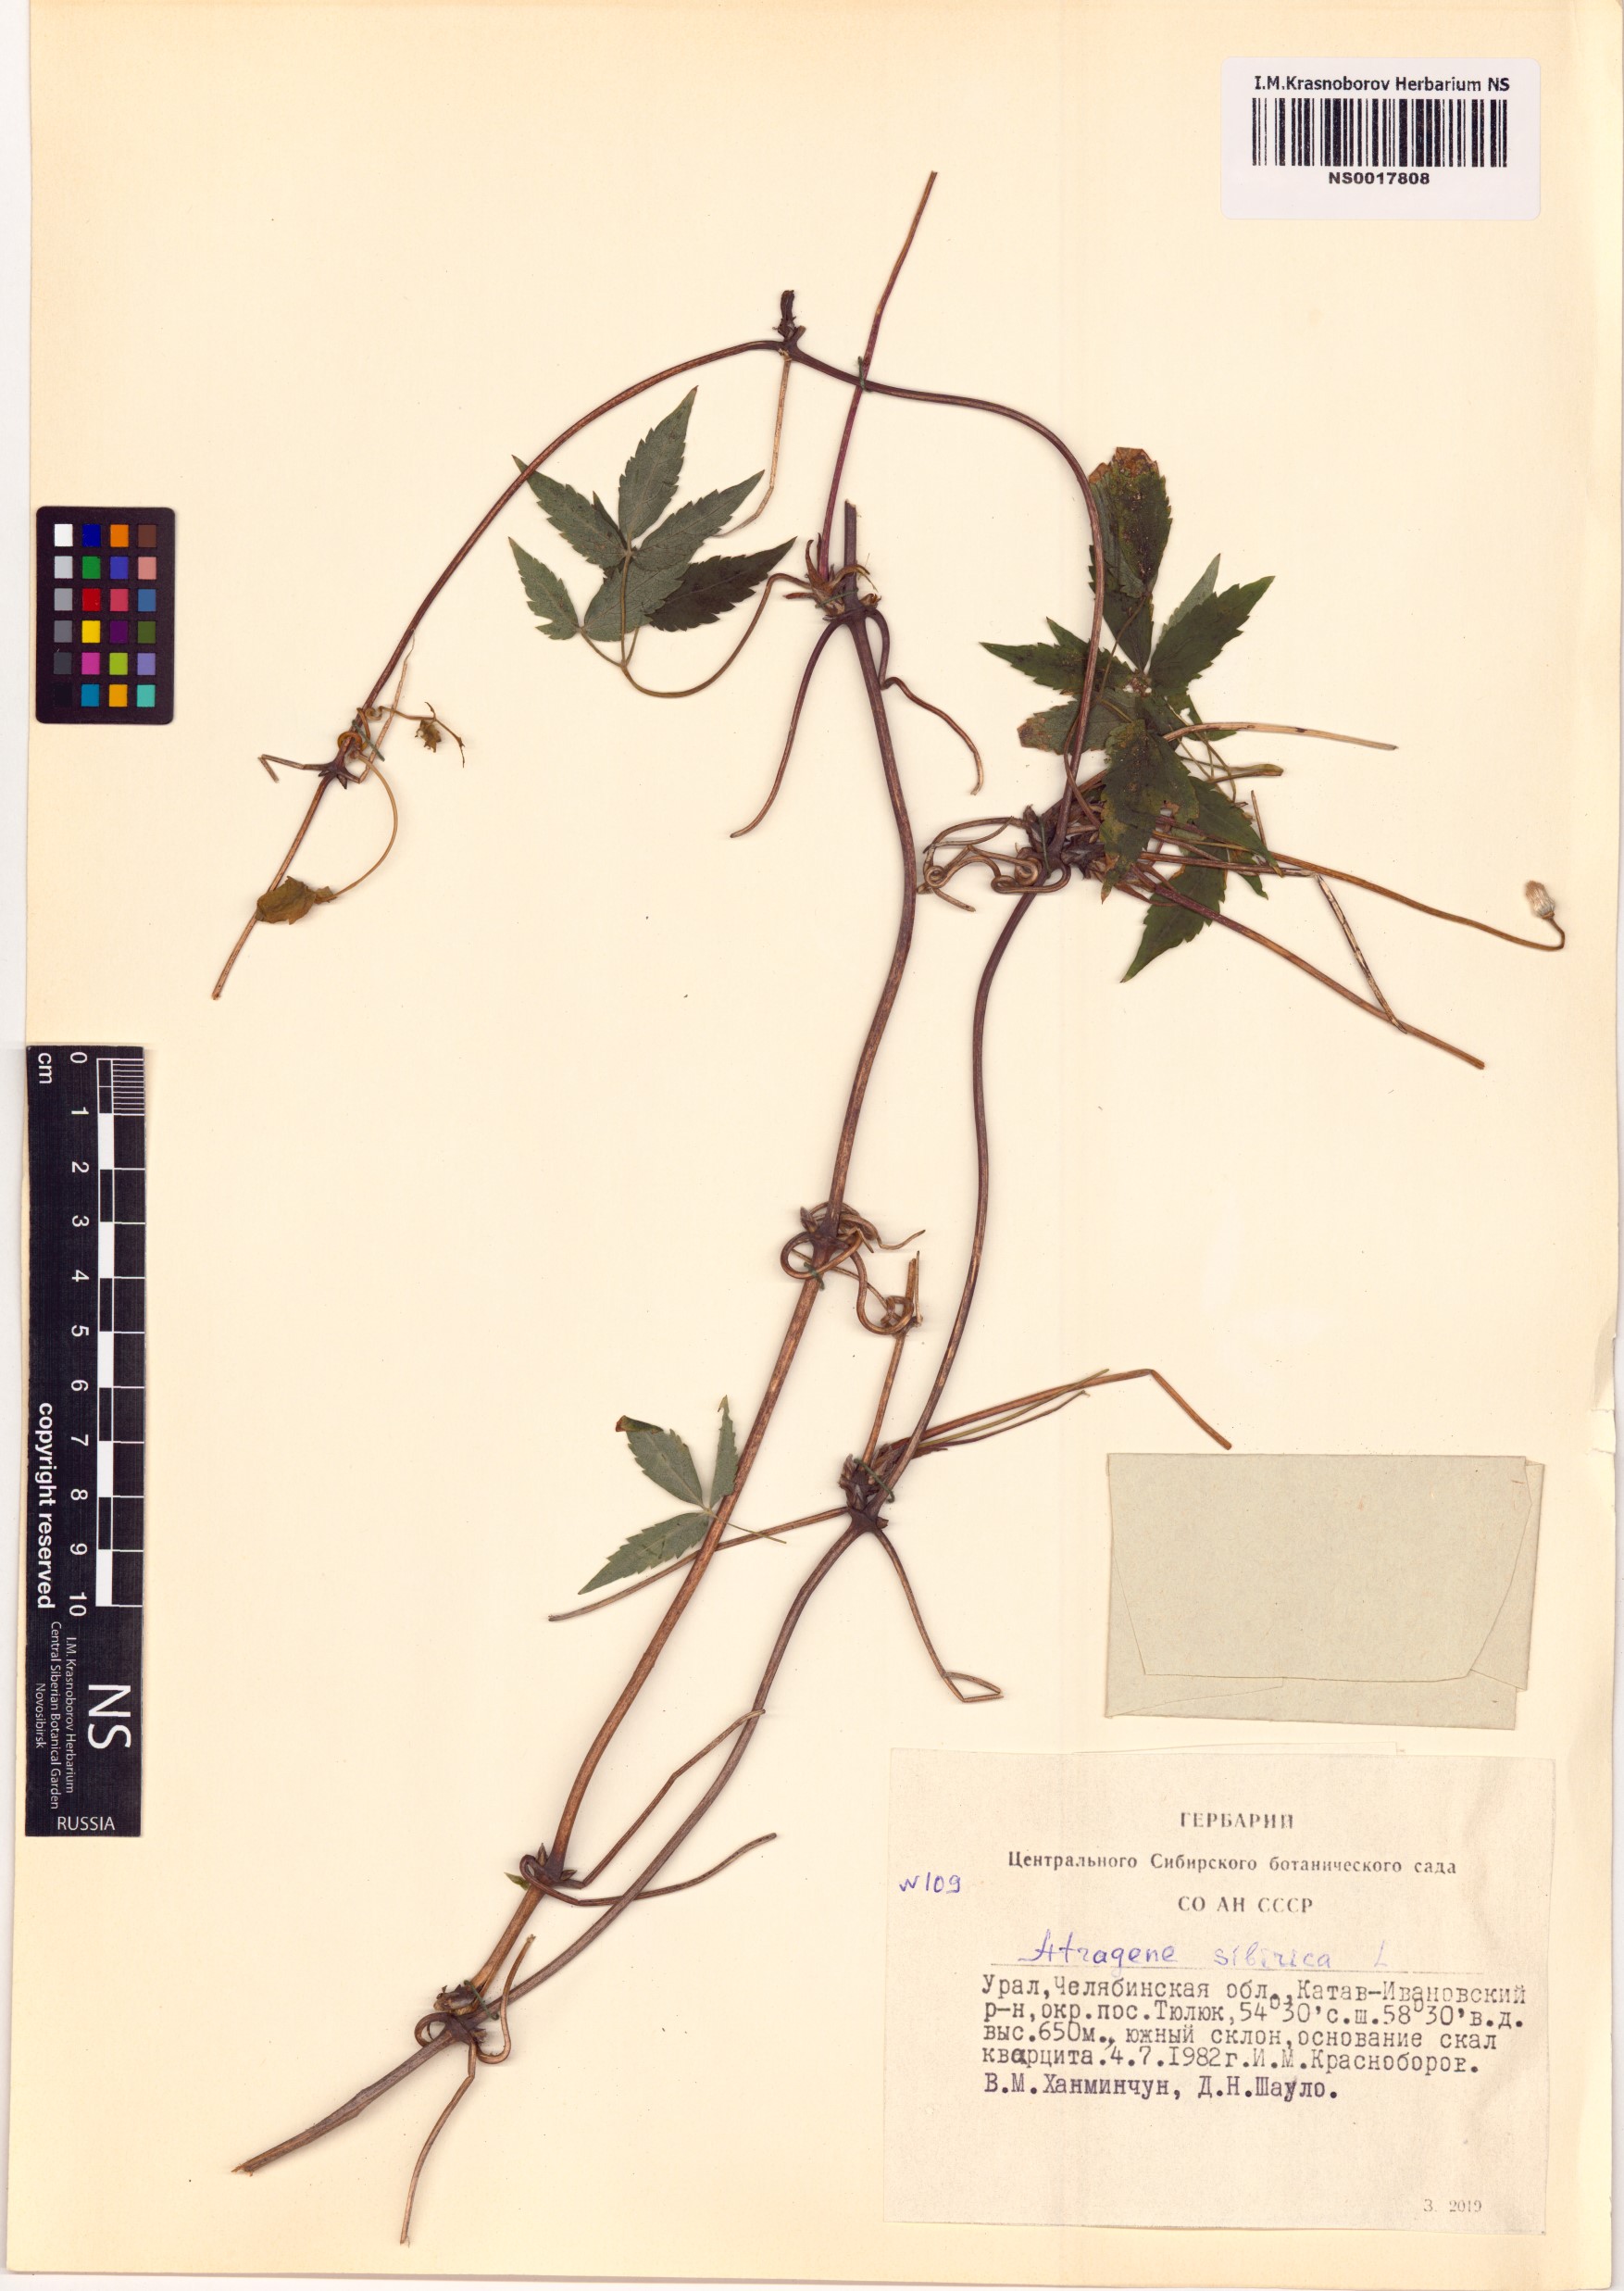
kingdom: Plantae
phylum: Tracheophyta
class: Magnoliopsida
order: Ranunculales
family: Ranunculaceae
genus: Clematis
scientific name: Clematis sibirica
